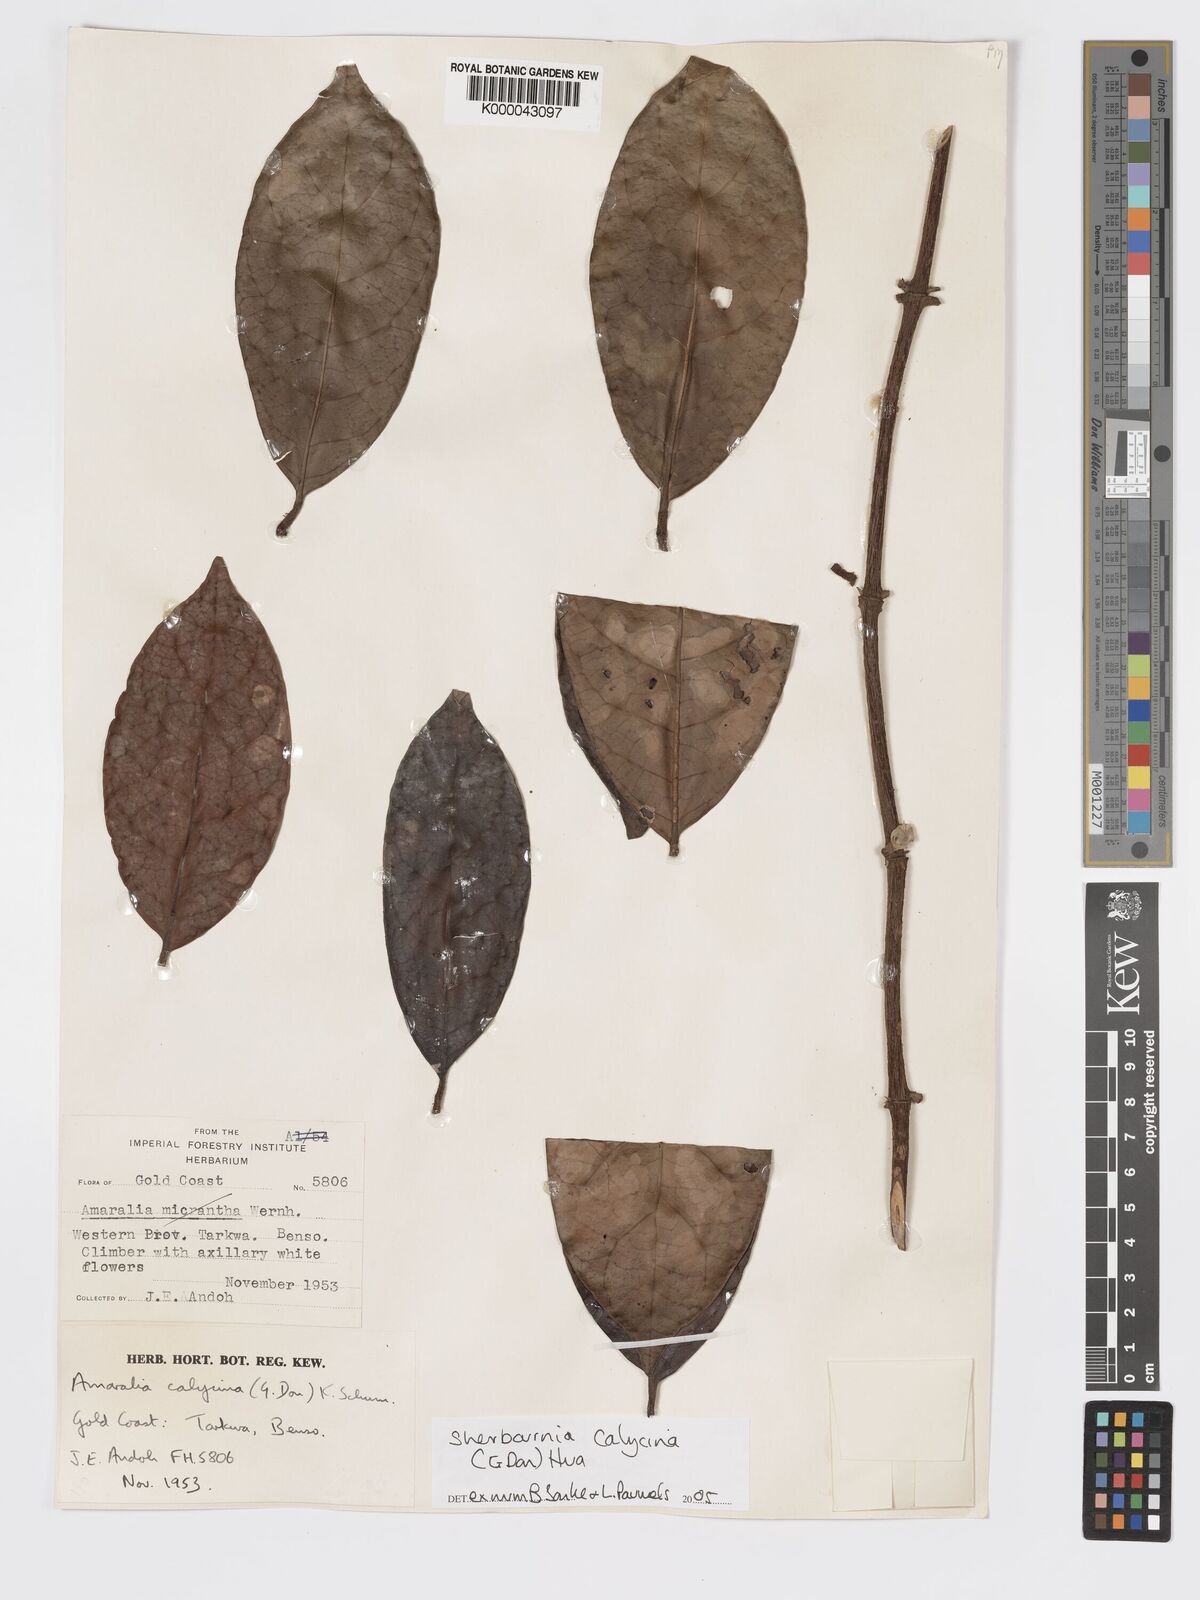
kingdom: Plantae
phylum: Tracheophyta
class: Magnoliopsida
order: Gentianales
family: Rubiaceae
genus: Sherbournia
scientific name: Sherbournia calycina
